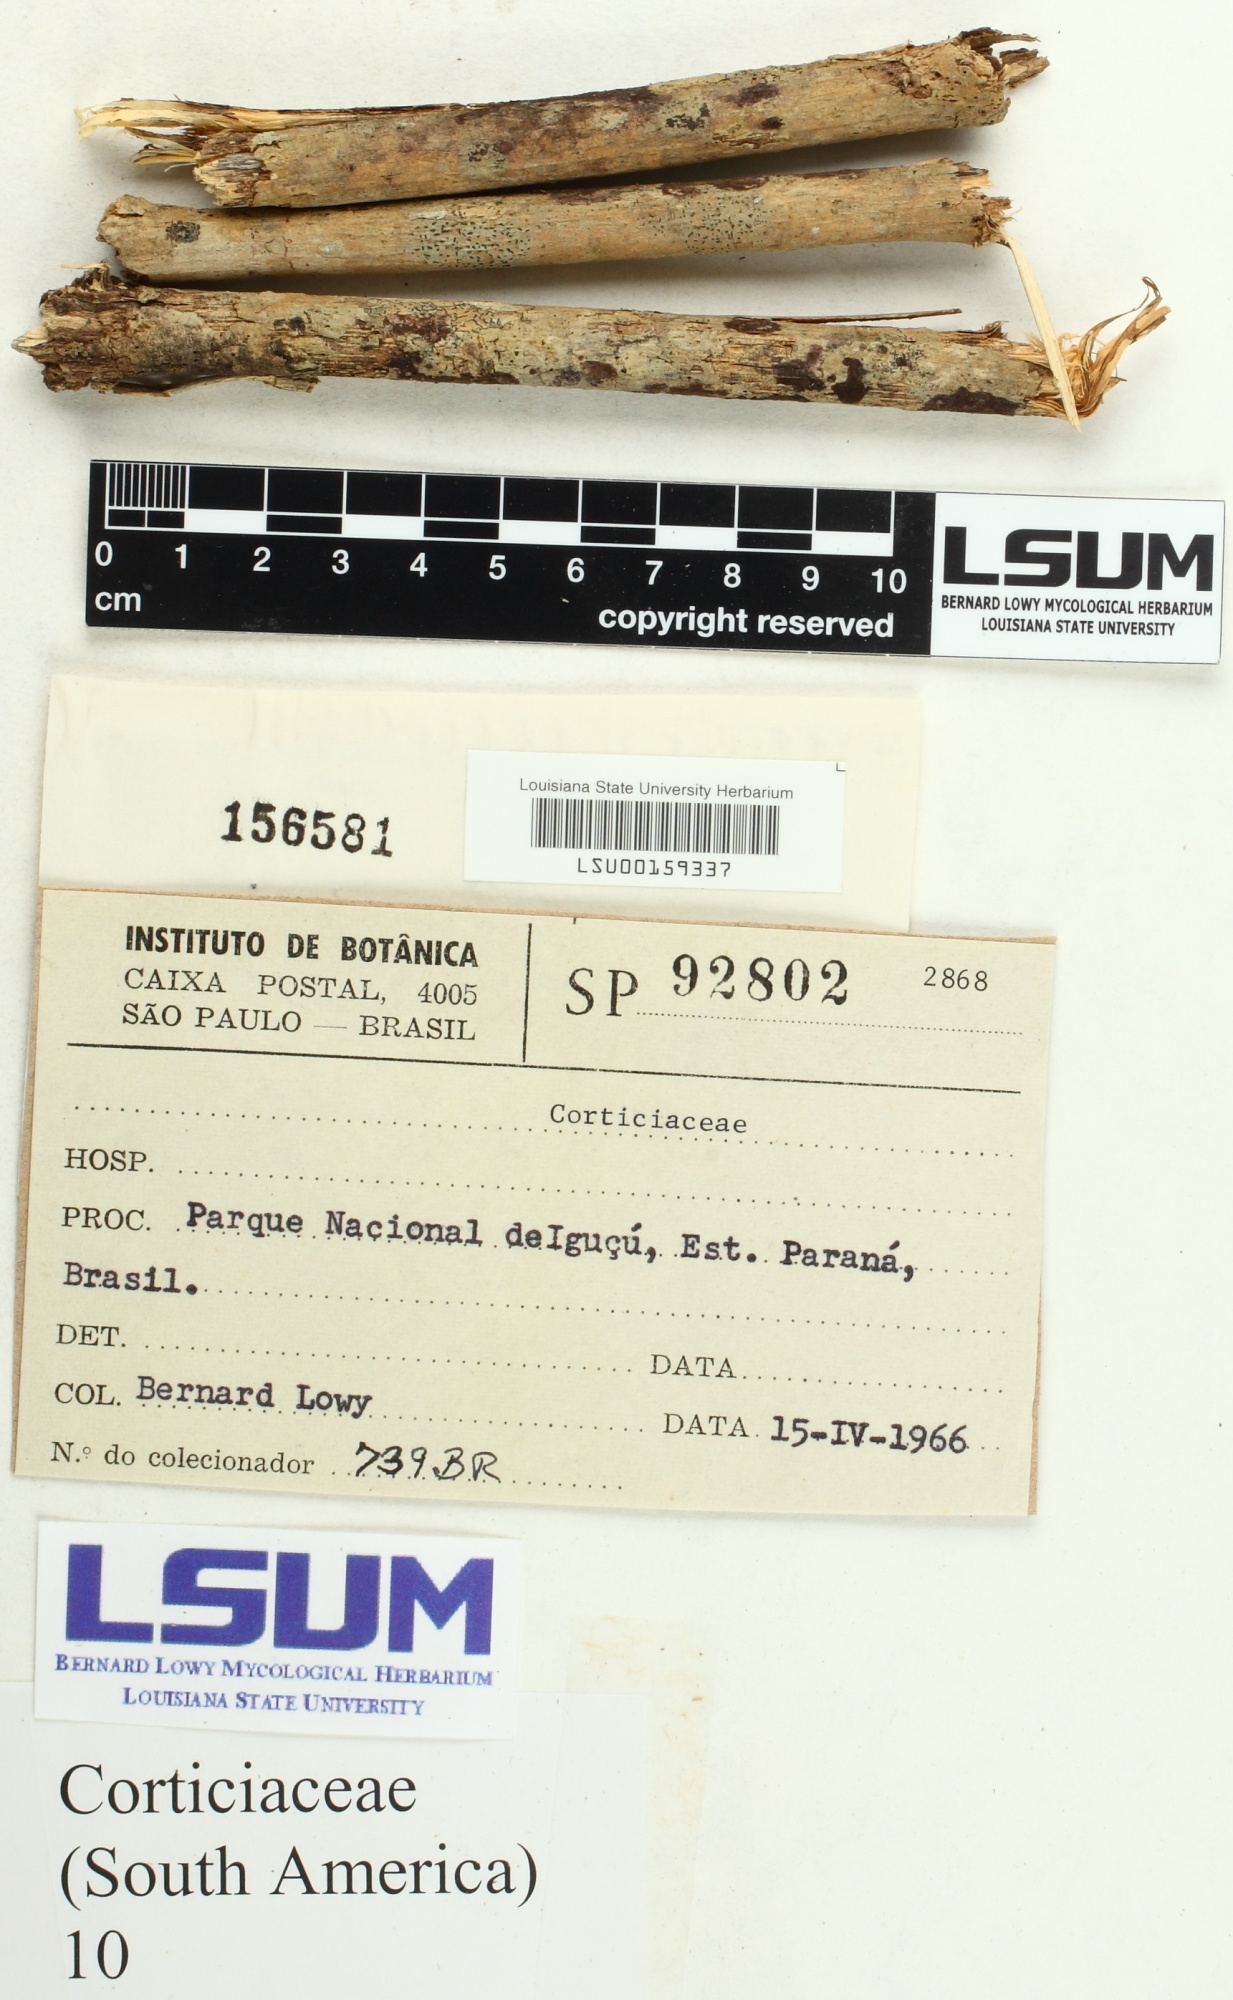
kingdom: Fungi
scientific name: Fungi
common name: Fungi
